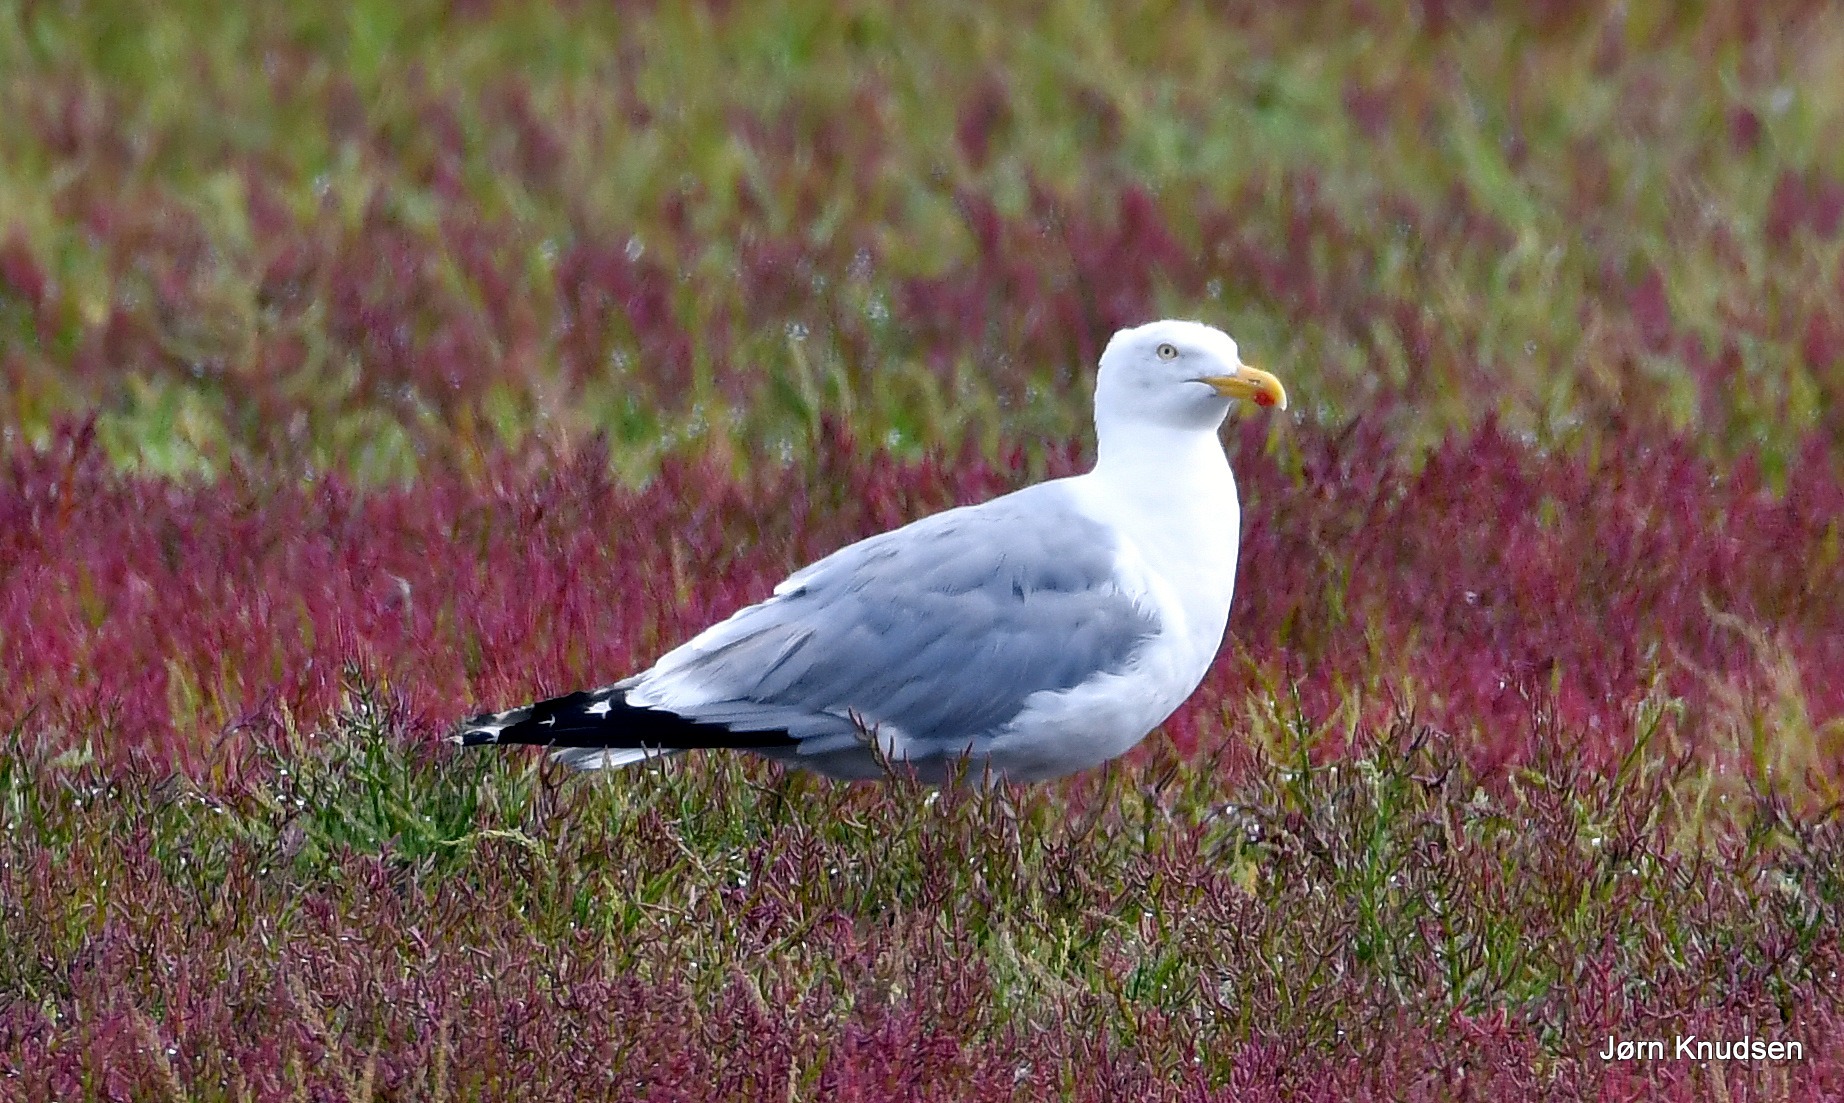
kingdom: Animalia
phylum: Chordata
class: Aves
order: Charadriiformes
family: Laridae
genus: Larus
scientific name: Larus argentatus
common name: Sølvmåge
